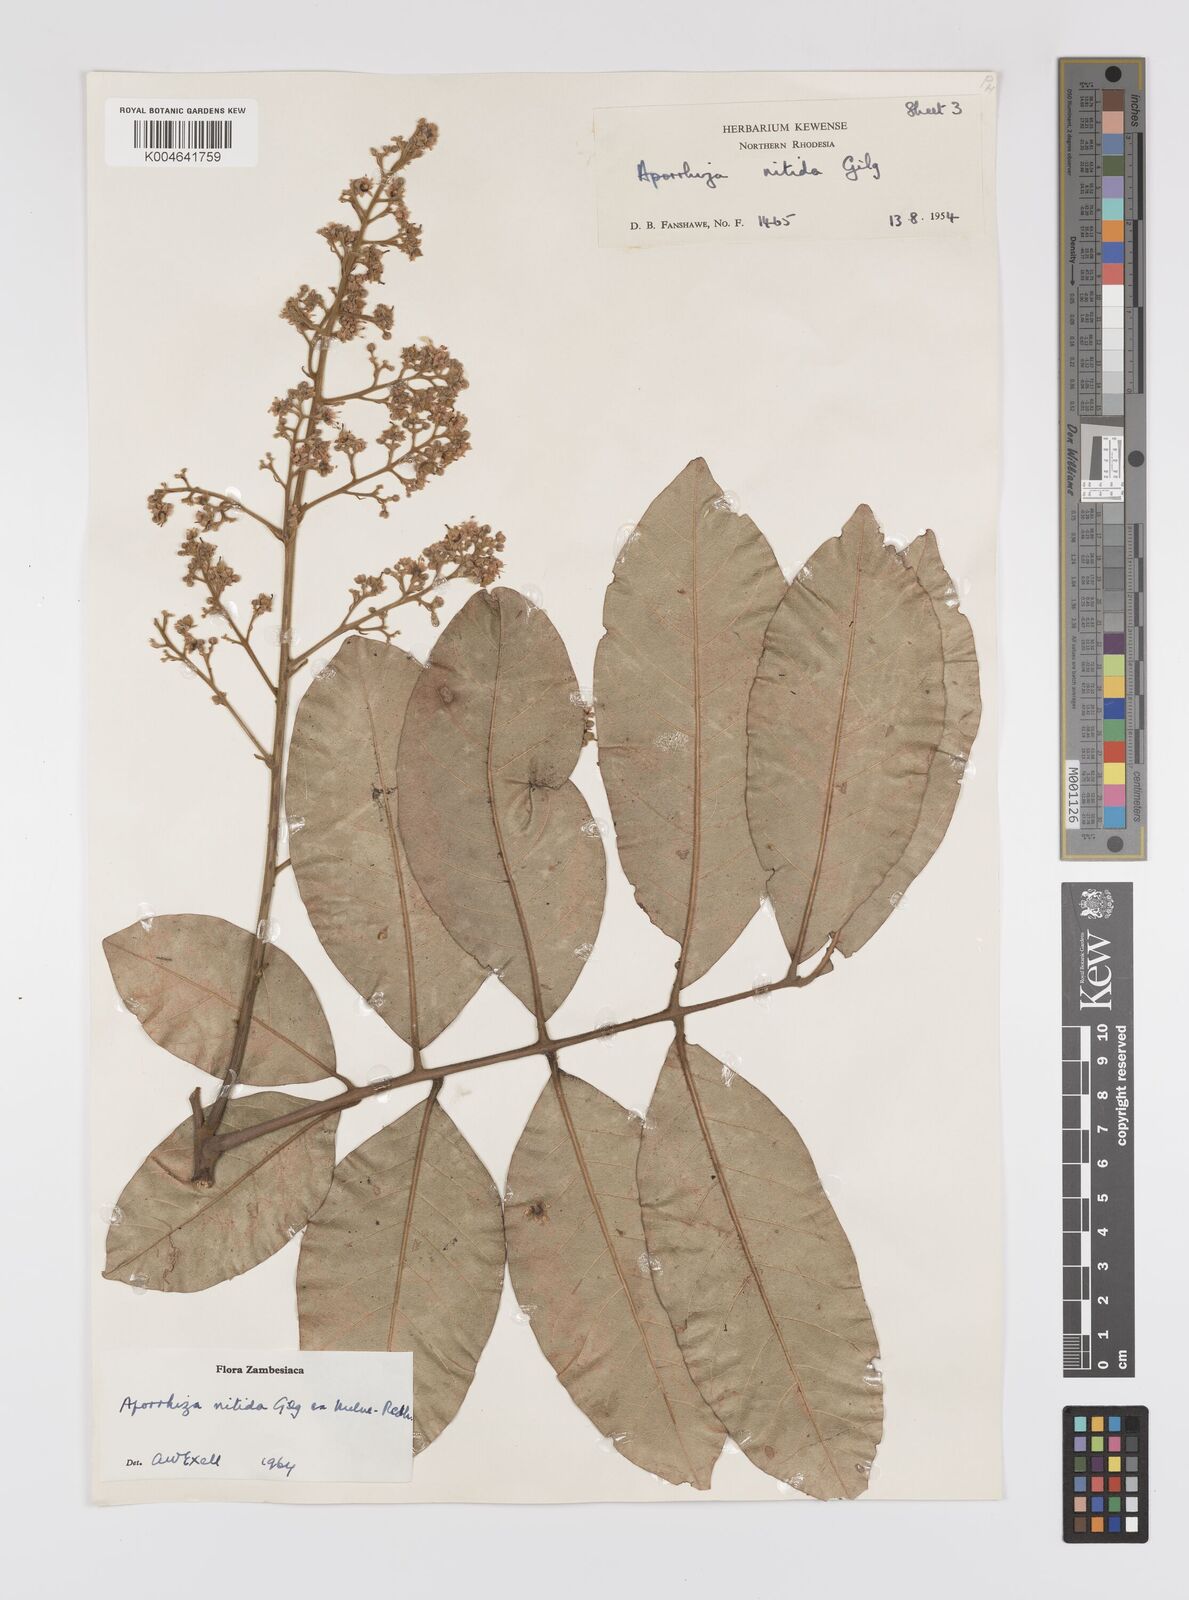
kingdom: Plantae
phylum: Tracheophyta
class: Magnoliopsida
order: Sapindales
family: Sapindaceae
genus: Aporrhiza
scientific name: Aporrhiza paniculata
